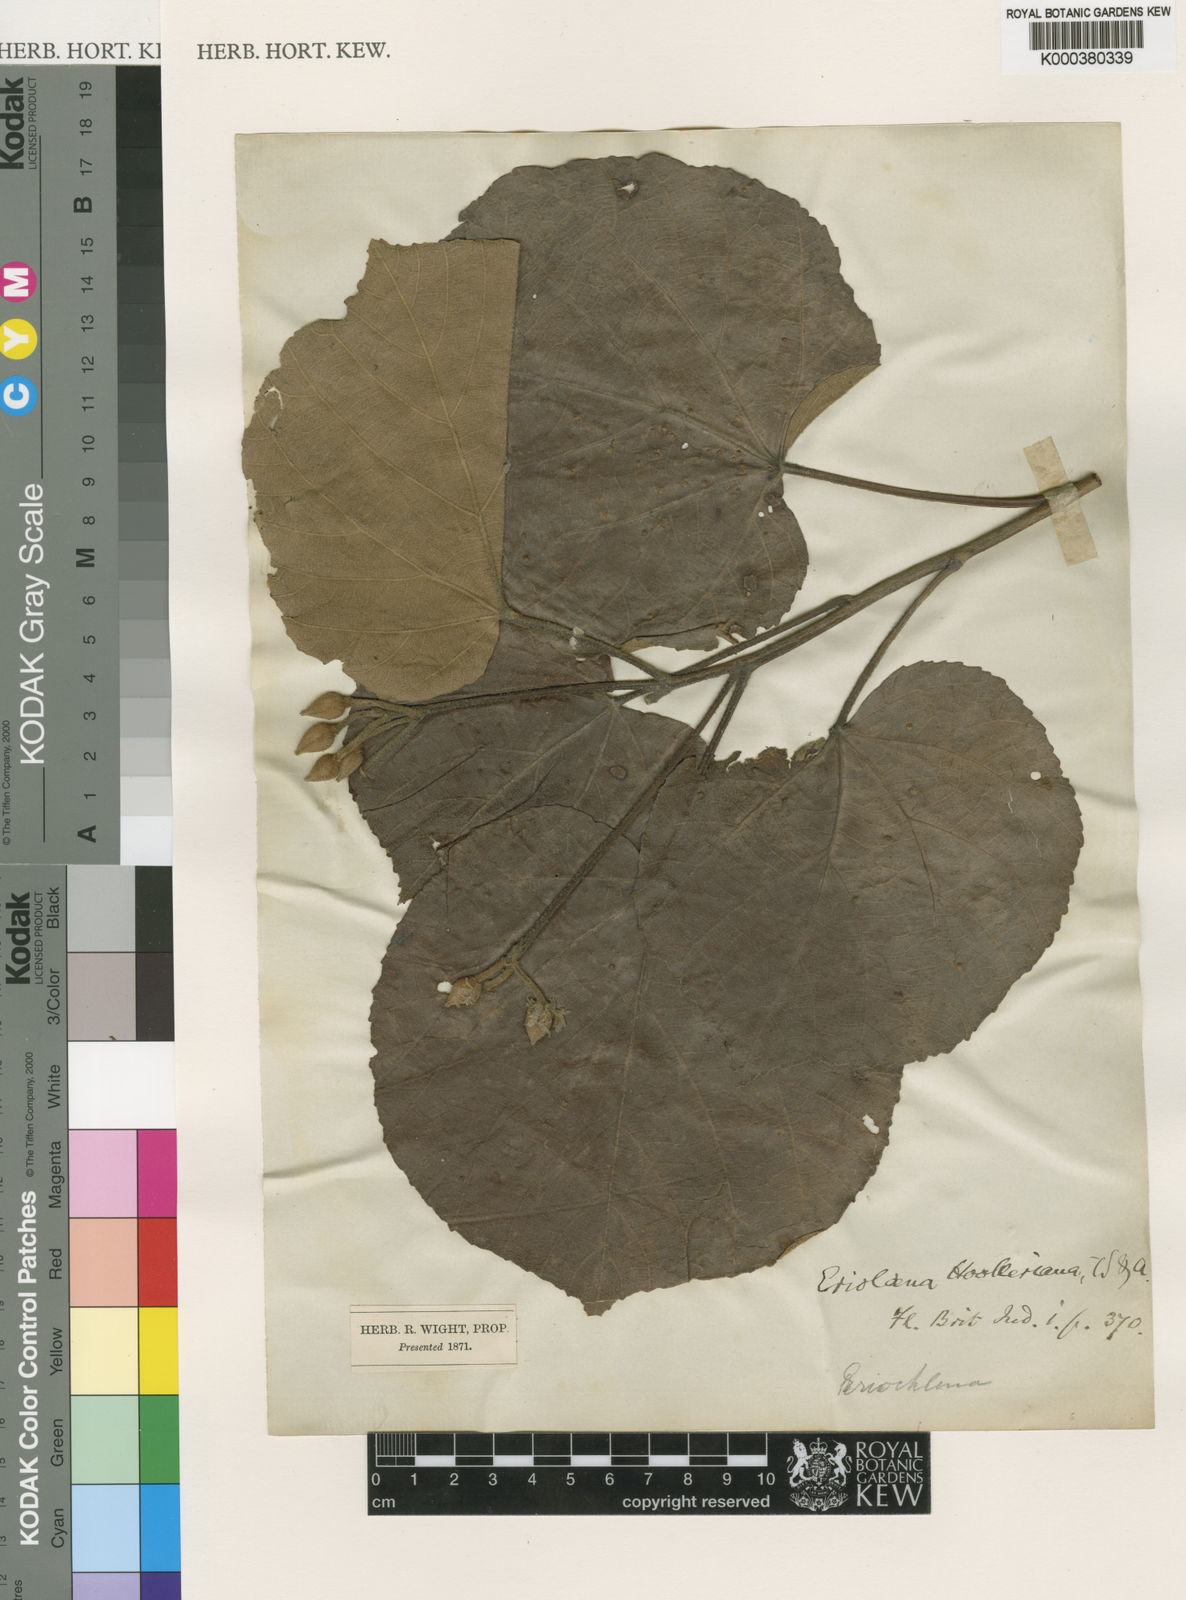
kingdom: Plantae
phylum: Tracheophyta
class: Magnoliopsida
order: Malvales
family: Malvaceae
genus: Eriolaena
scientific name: Eriolaena hookeriana
